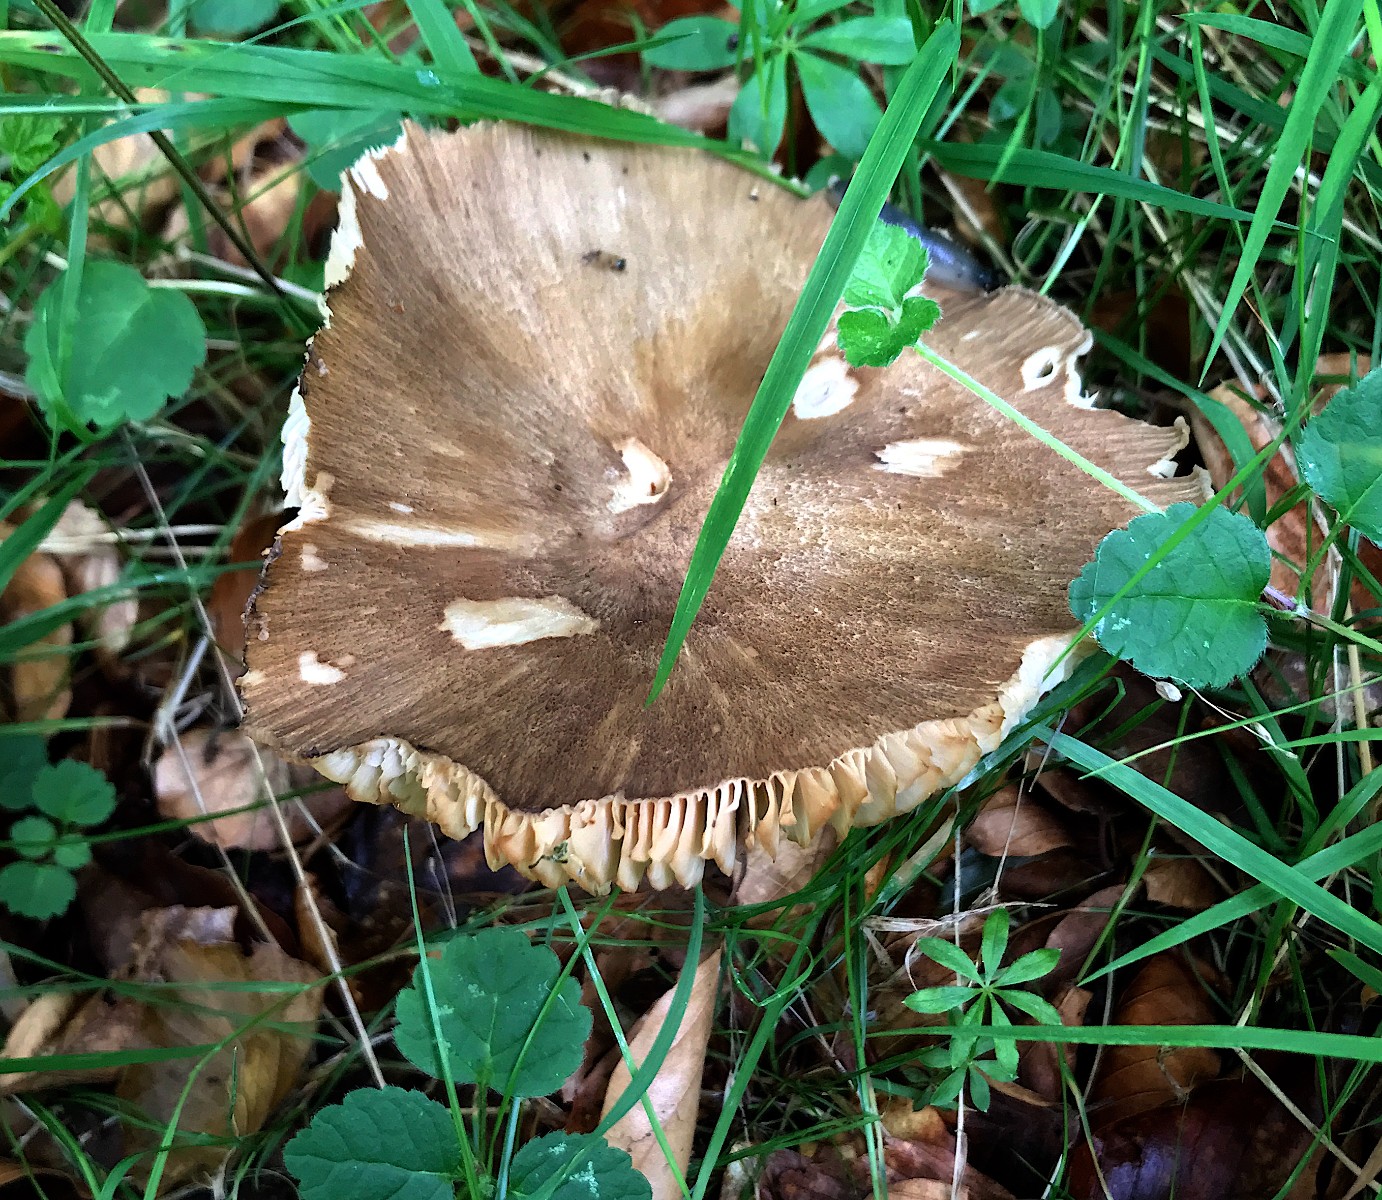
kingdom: Fungi
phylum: Basidiomycota
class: Agaricomycetes
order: Agaricales
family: Tricholomataceae
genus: Megacollybia
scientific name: Megacollybia platyphylla
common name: bredbladet væbnerhat
